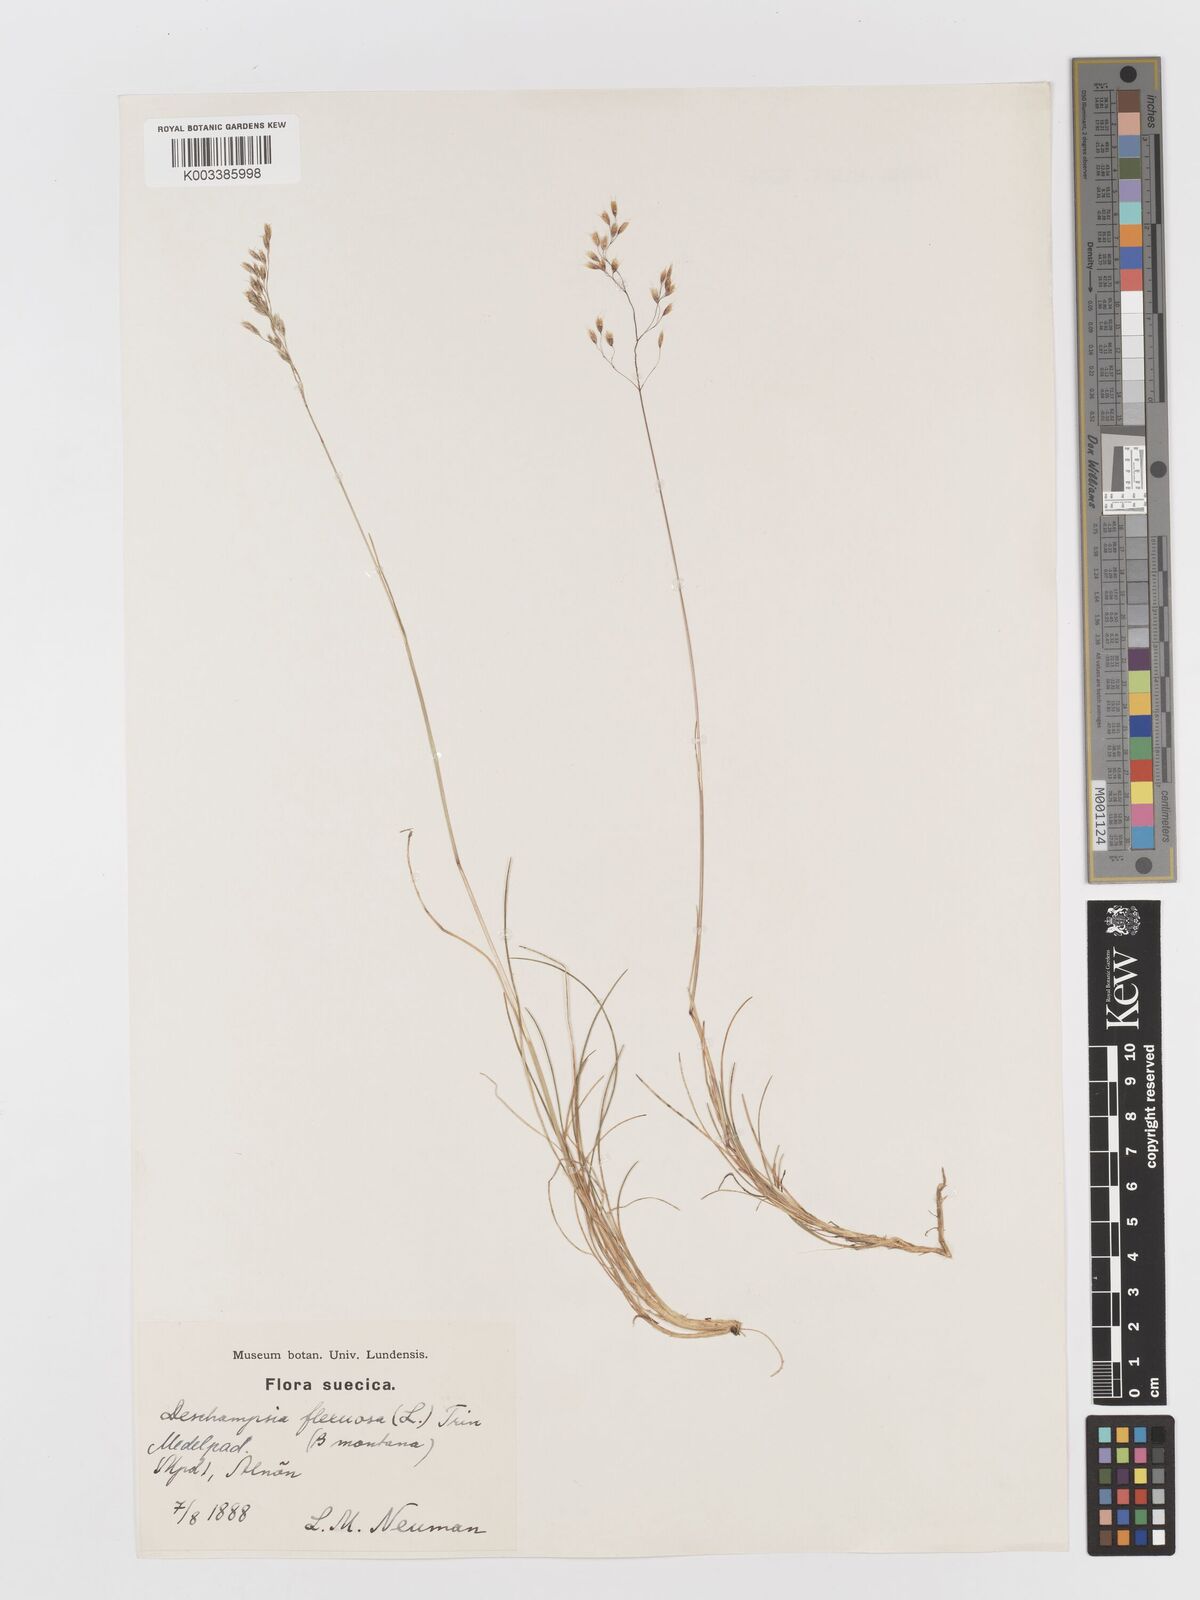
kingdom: Plantae
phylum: Tracheophyta
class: Liliopsida
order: Poales
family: Poaceae
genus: Avenella
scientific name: Avenella flexuosa
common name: Wavy hairgrass
